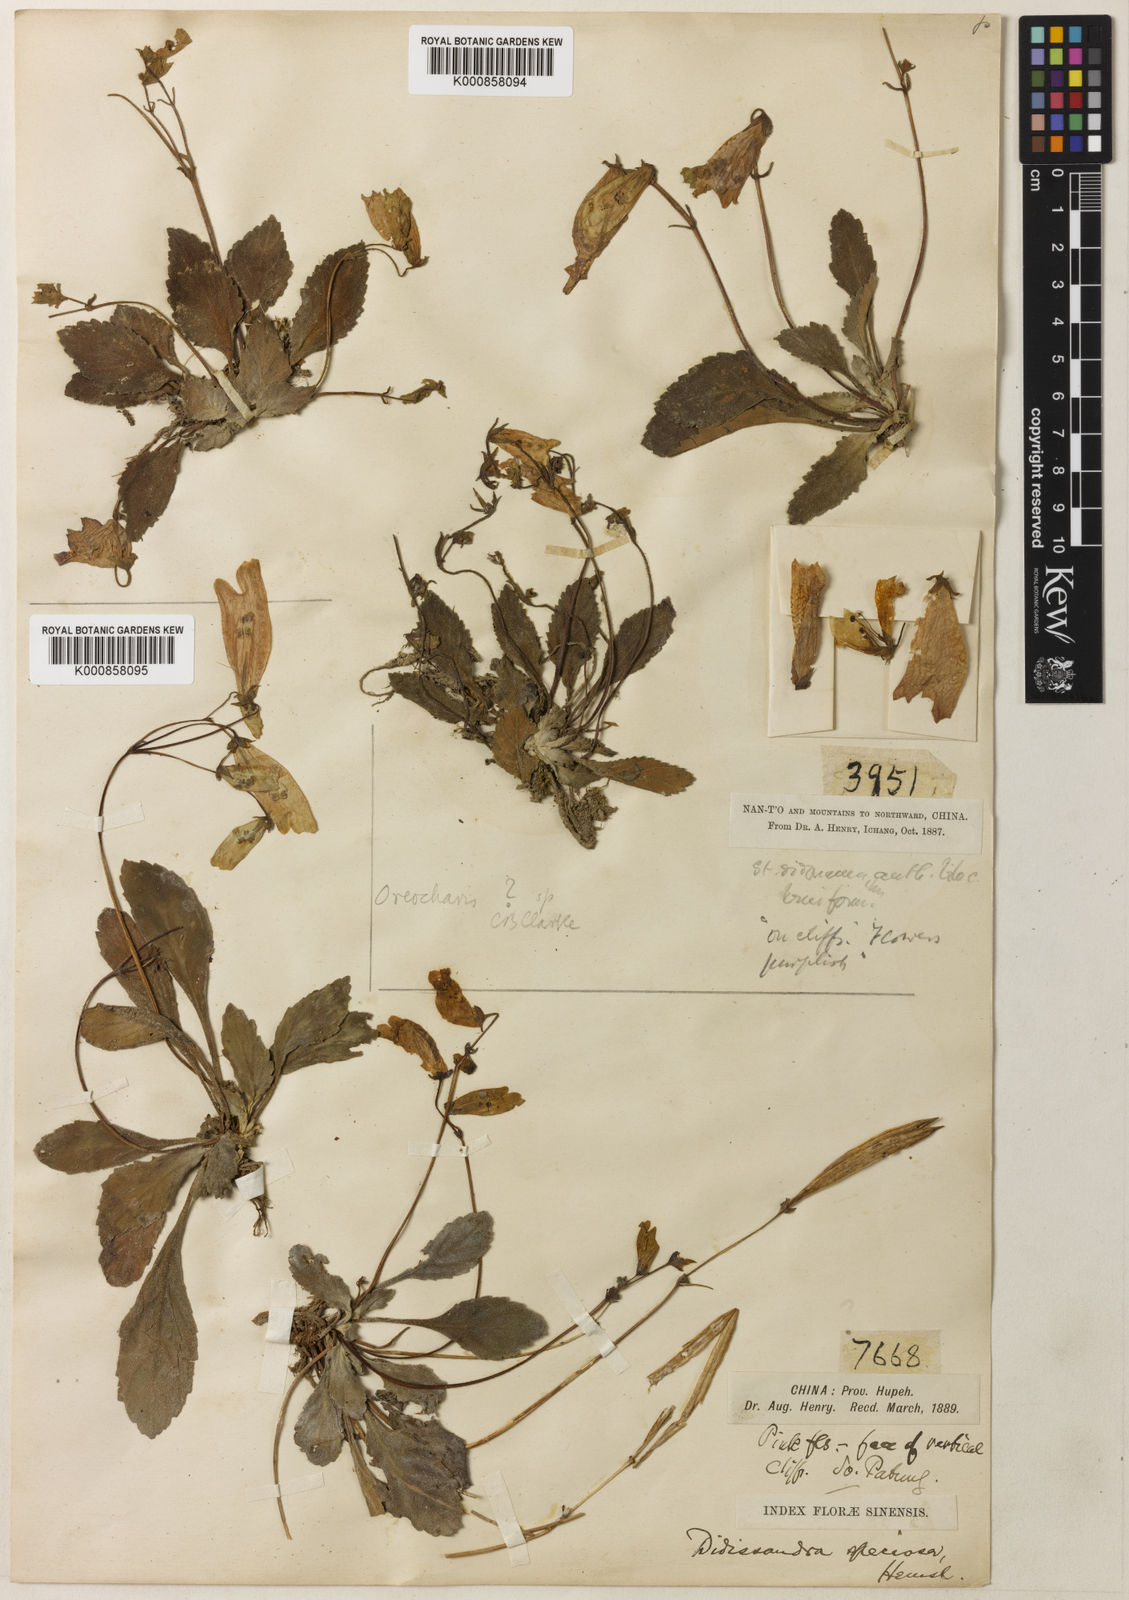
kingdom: Plantae
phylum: Tracheophyta
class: Magnoliopsida
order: Lamiales
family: Gesneriaceae
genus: Oreocharis
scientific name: Oreocharis
